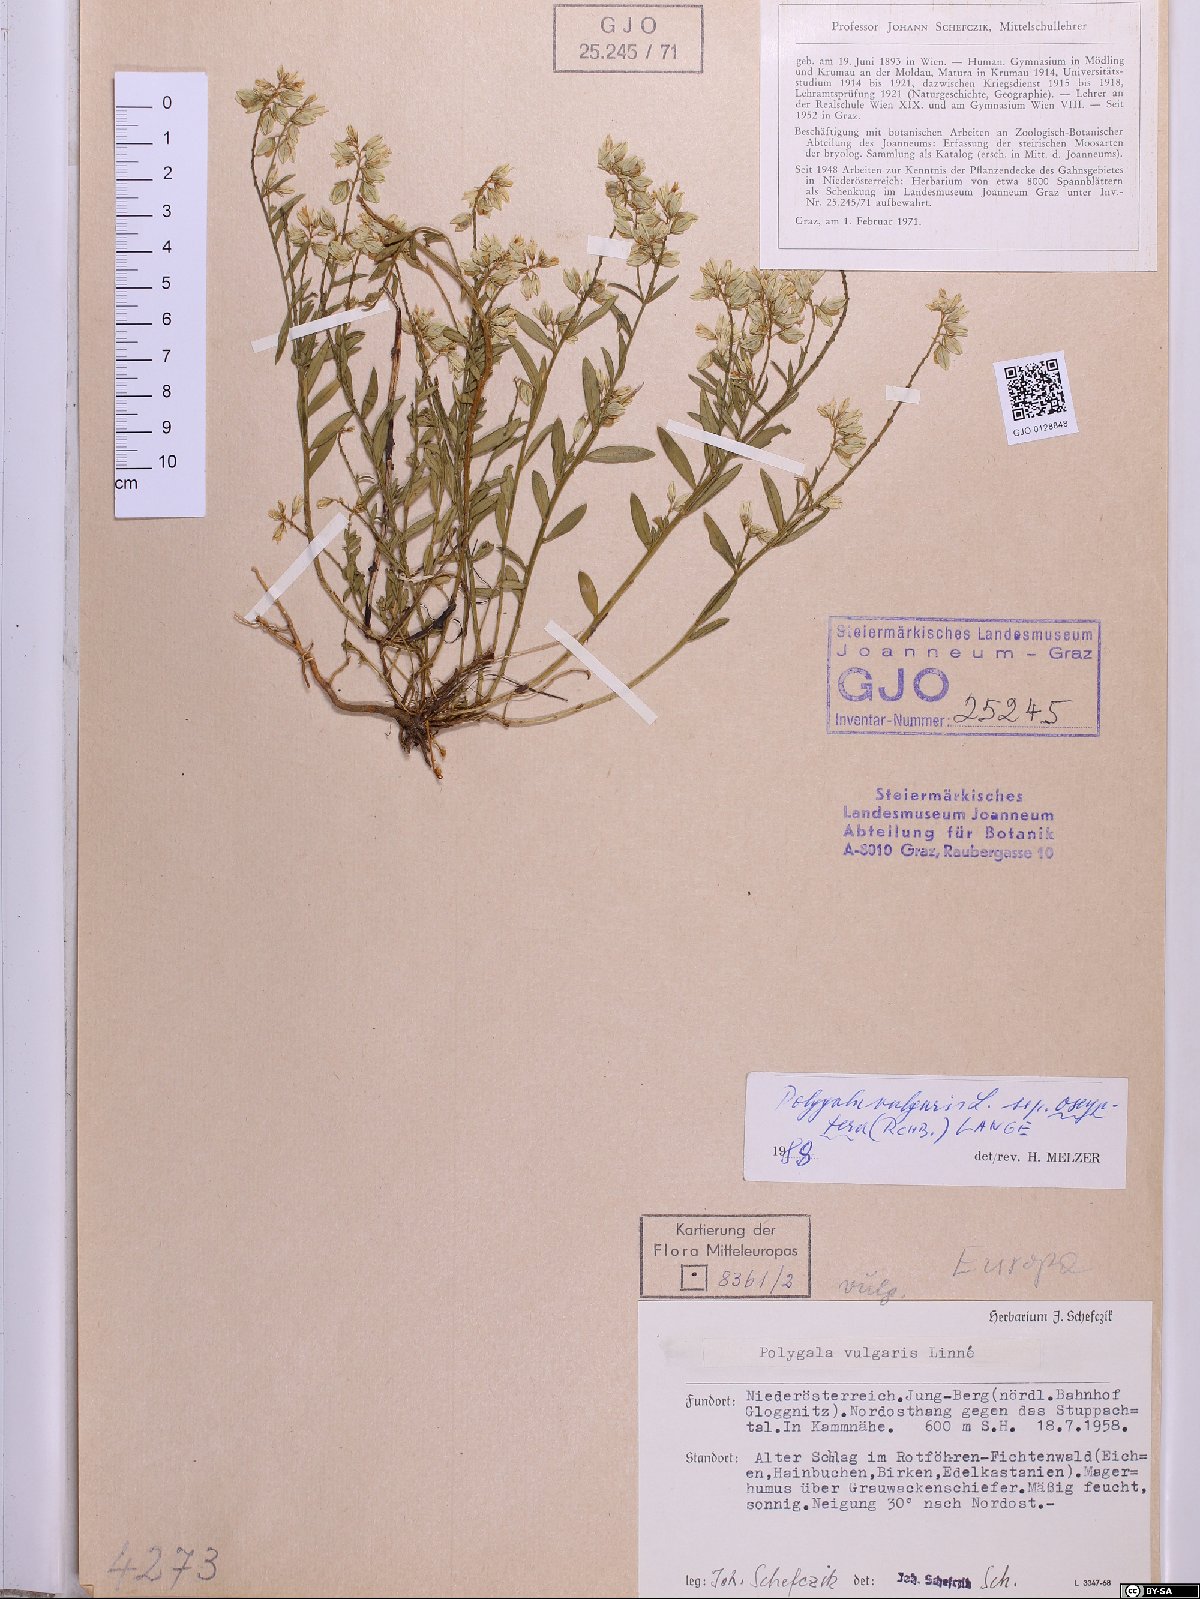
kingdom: Plantae
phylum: Tracheophyta
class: Magnoliopsida
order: Fabales
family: Polygalaceae
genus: Polygala
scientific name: Polygala vulgaris
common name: Common milkwort
